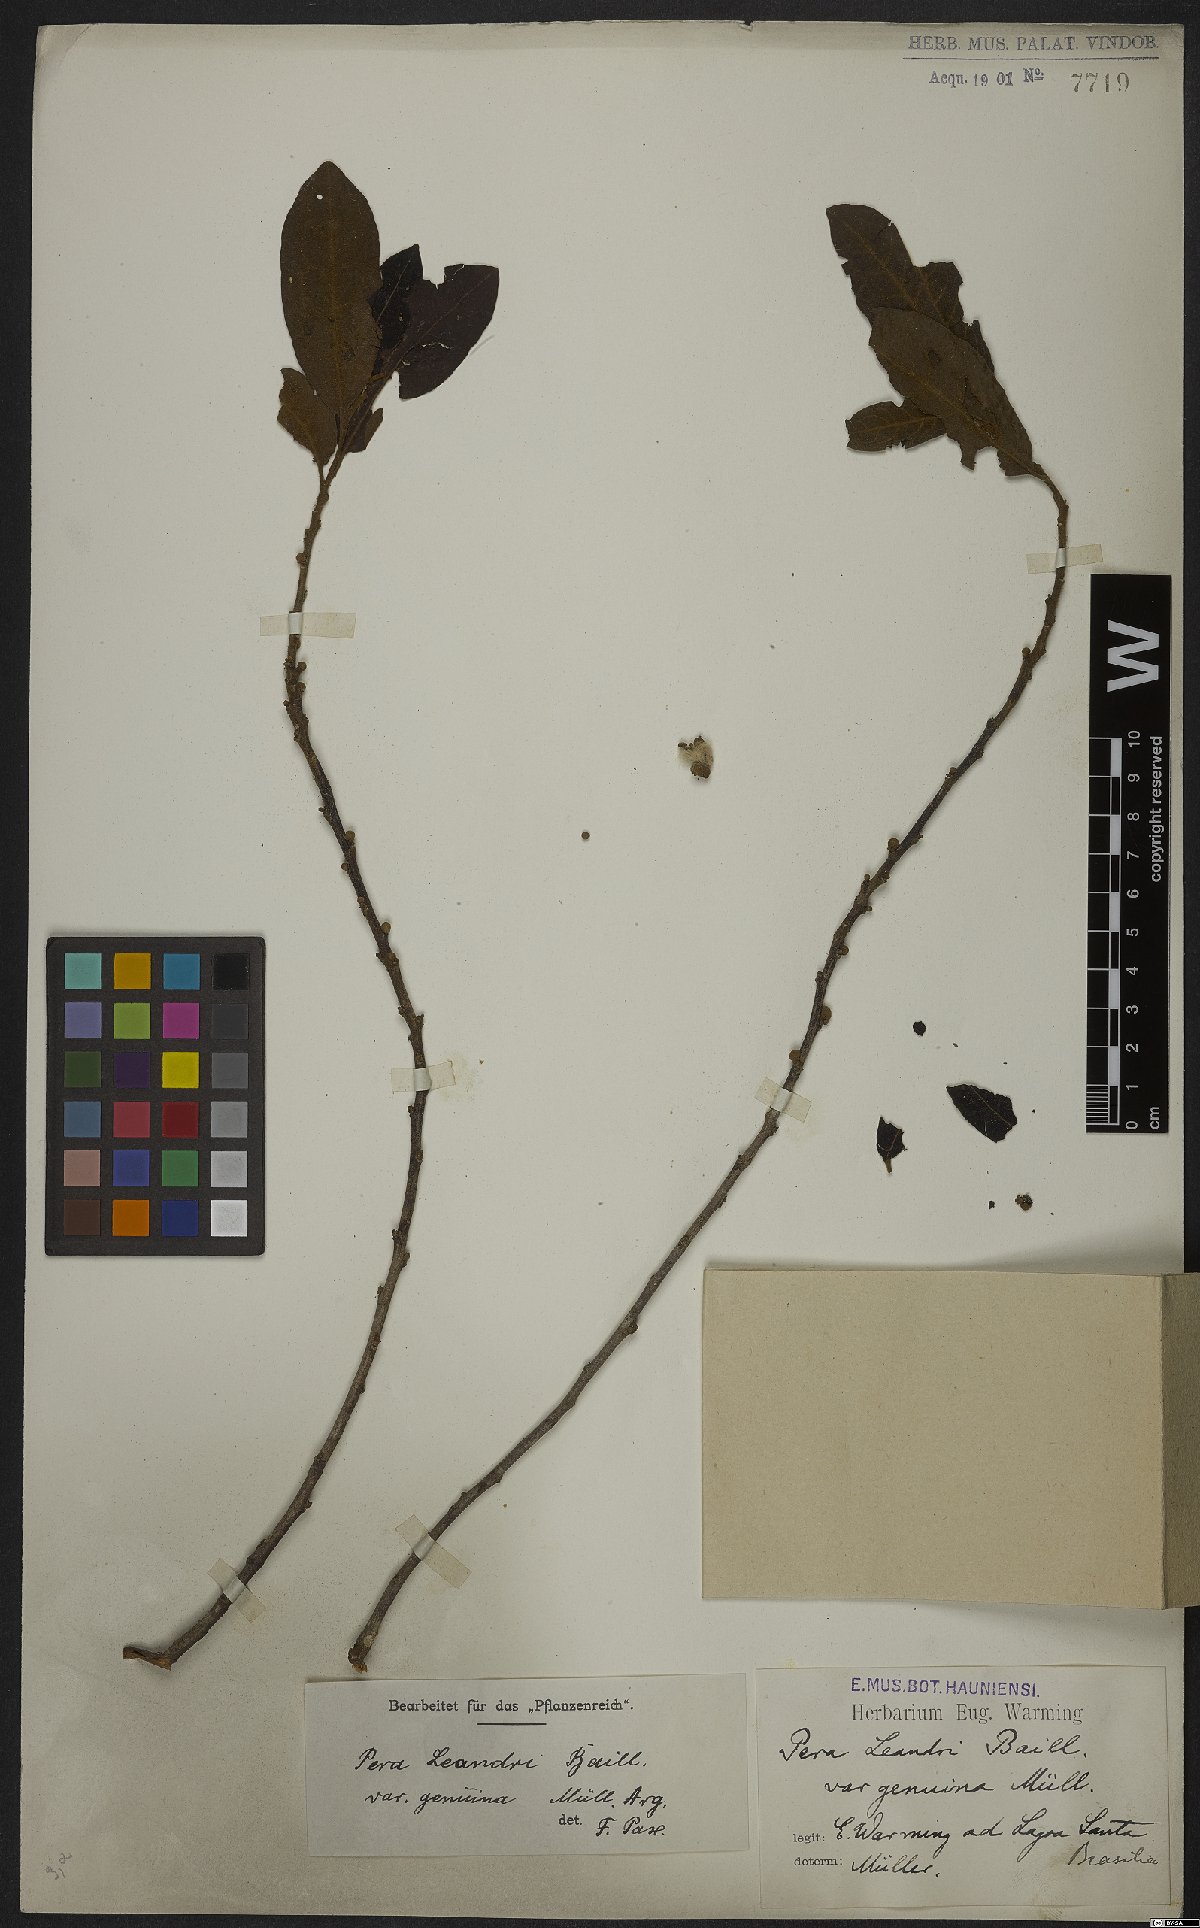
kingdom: Plantae
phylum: Tracheophyta
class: Magnoliopsida
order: Malpighiales
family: Peraceae
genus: Pera
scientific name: Pera heteranthera
